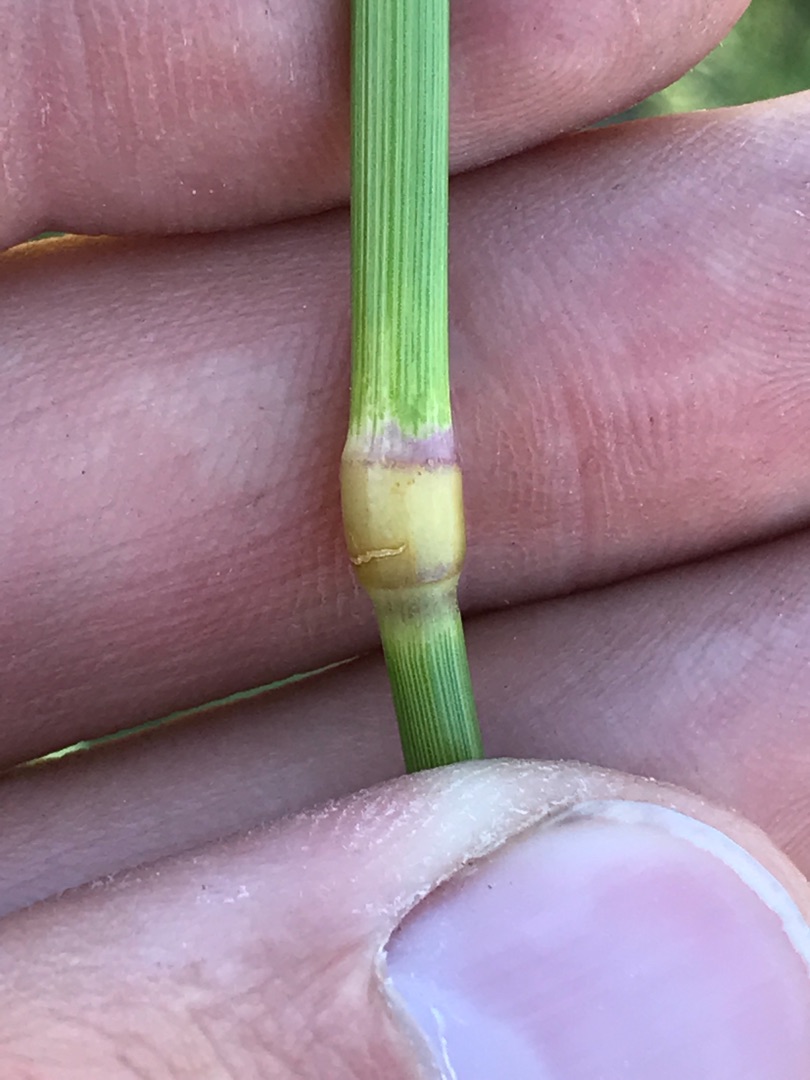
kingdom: Plantae
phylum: Tracheophyta
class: Liliopsida
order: Poales
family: Poaceae
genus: Arrhenatherum
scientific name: Arrhenatherum elatius
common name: Draphavre
